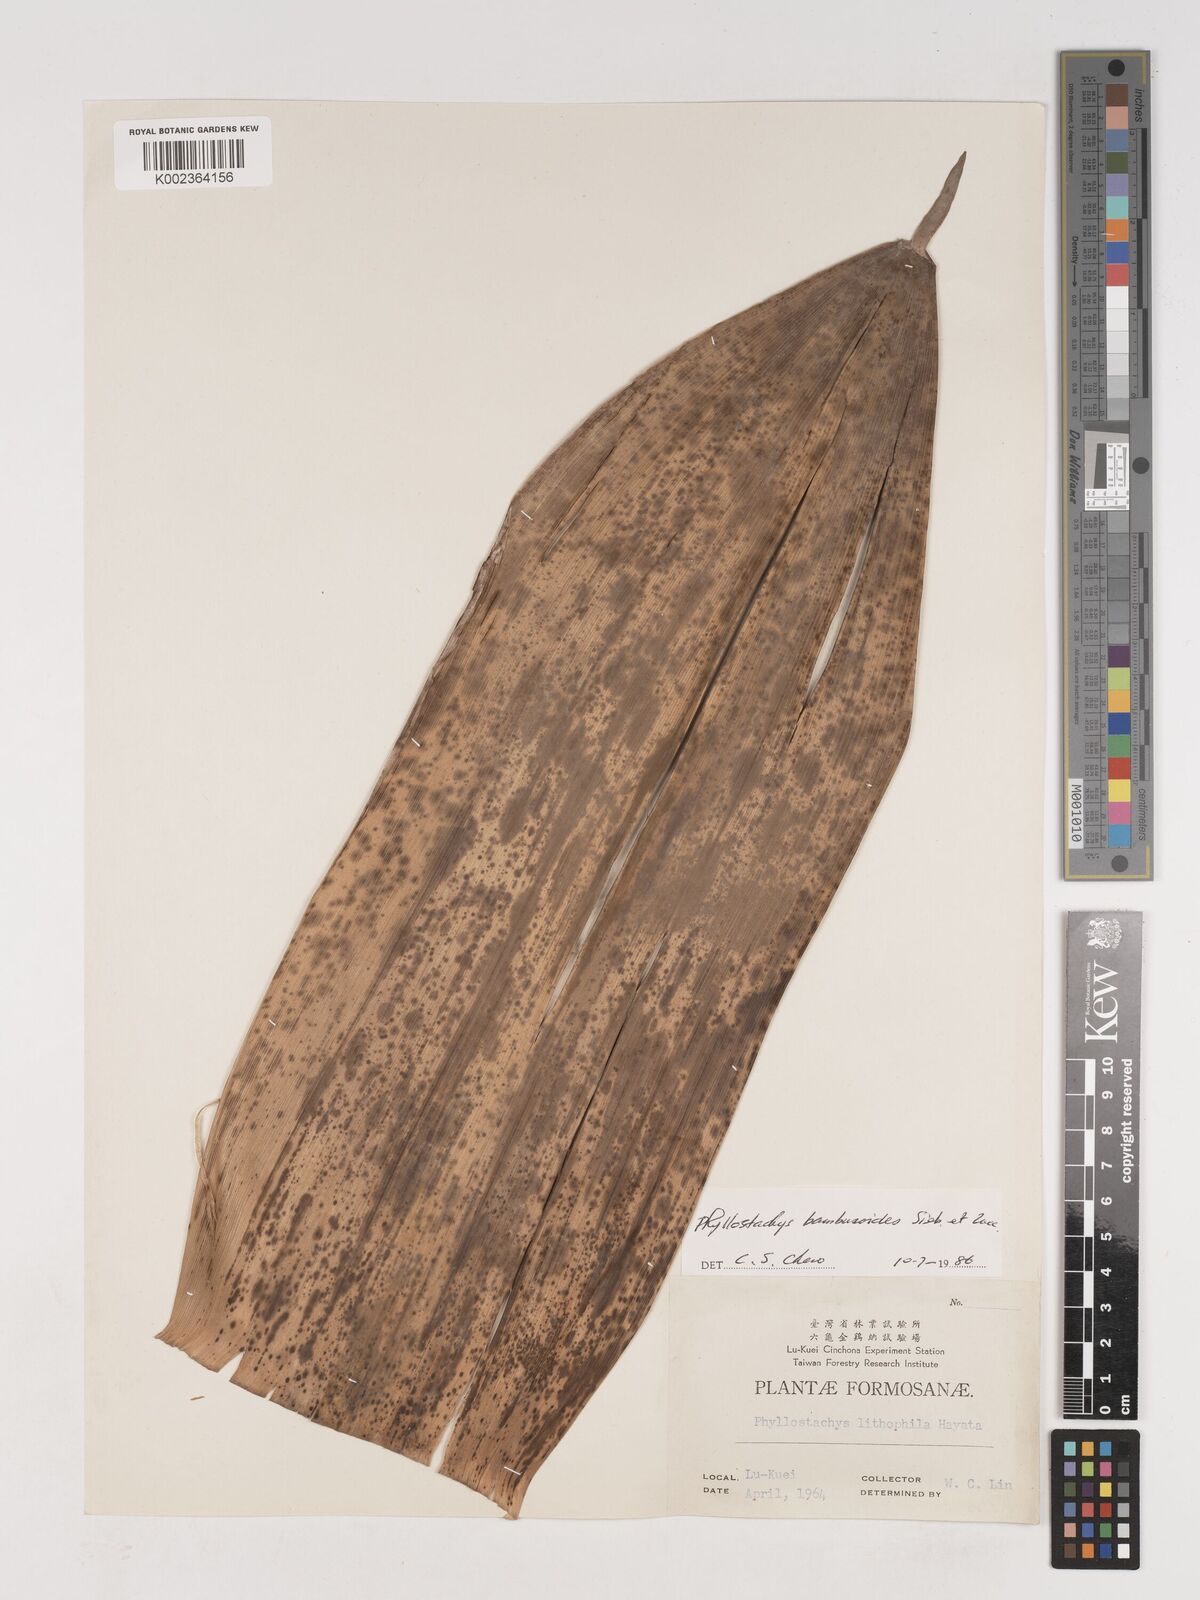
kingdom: Plantae
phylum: Tracheophyta
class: Liliopsida
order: Poales
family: Poaceae
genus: Phyllostachys
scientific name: Phyllostachys reticulata
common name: Bamboo
